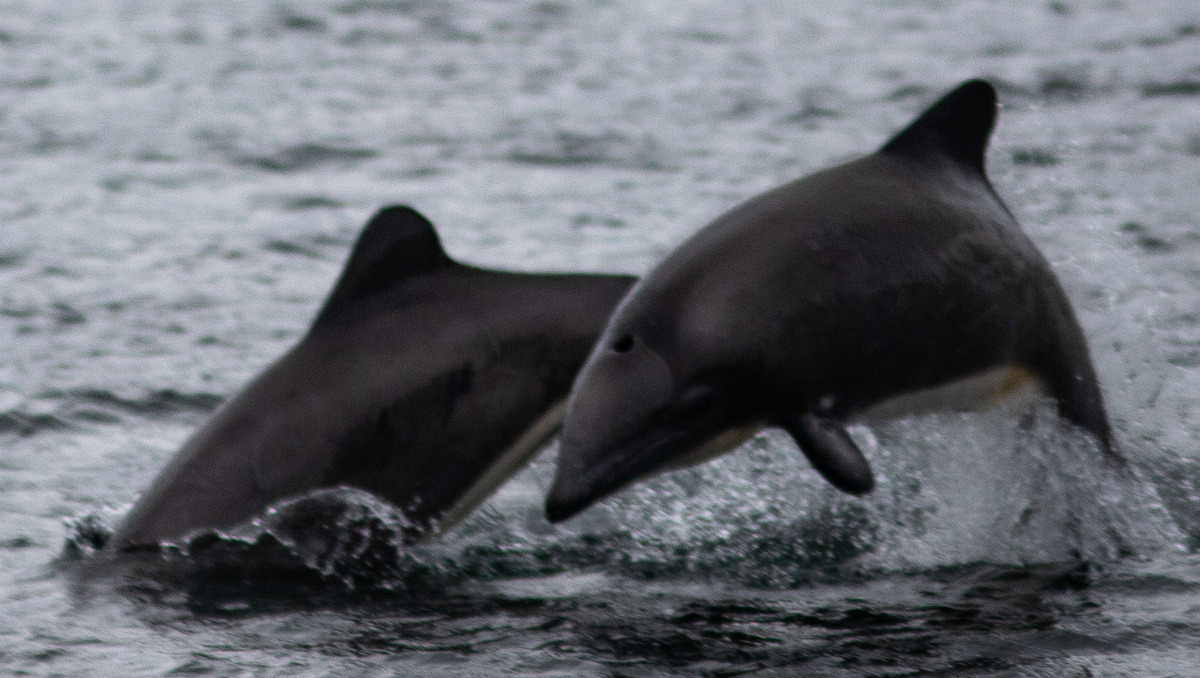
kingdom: Animalia
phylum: Chordata
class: Mammalia
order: Cetacea
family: Delphinidae
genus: Cephalorhynchus
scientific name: Cephalorhynchus eutropia
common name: Black dolphin
